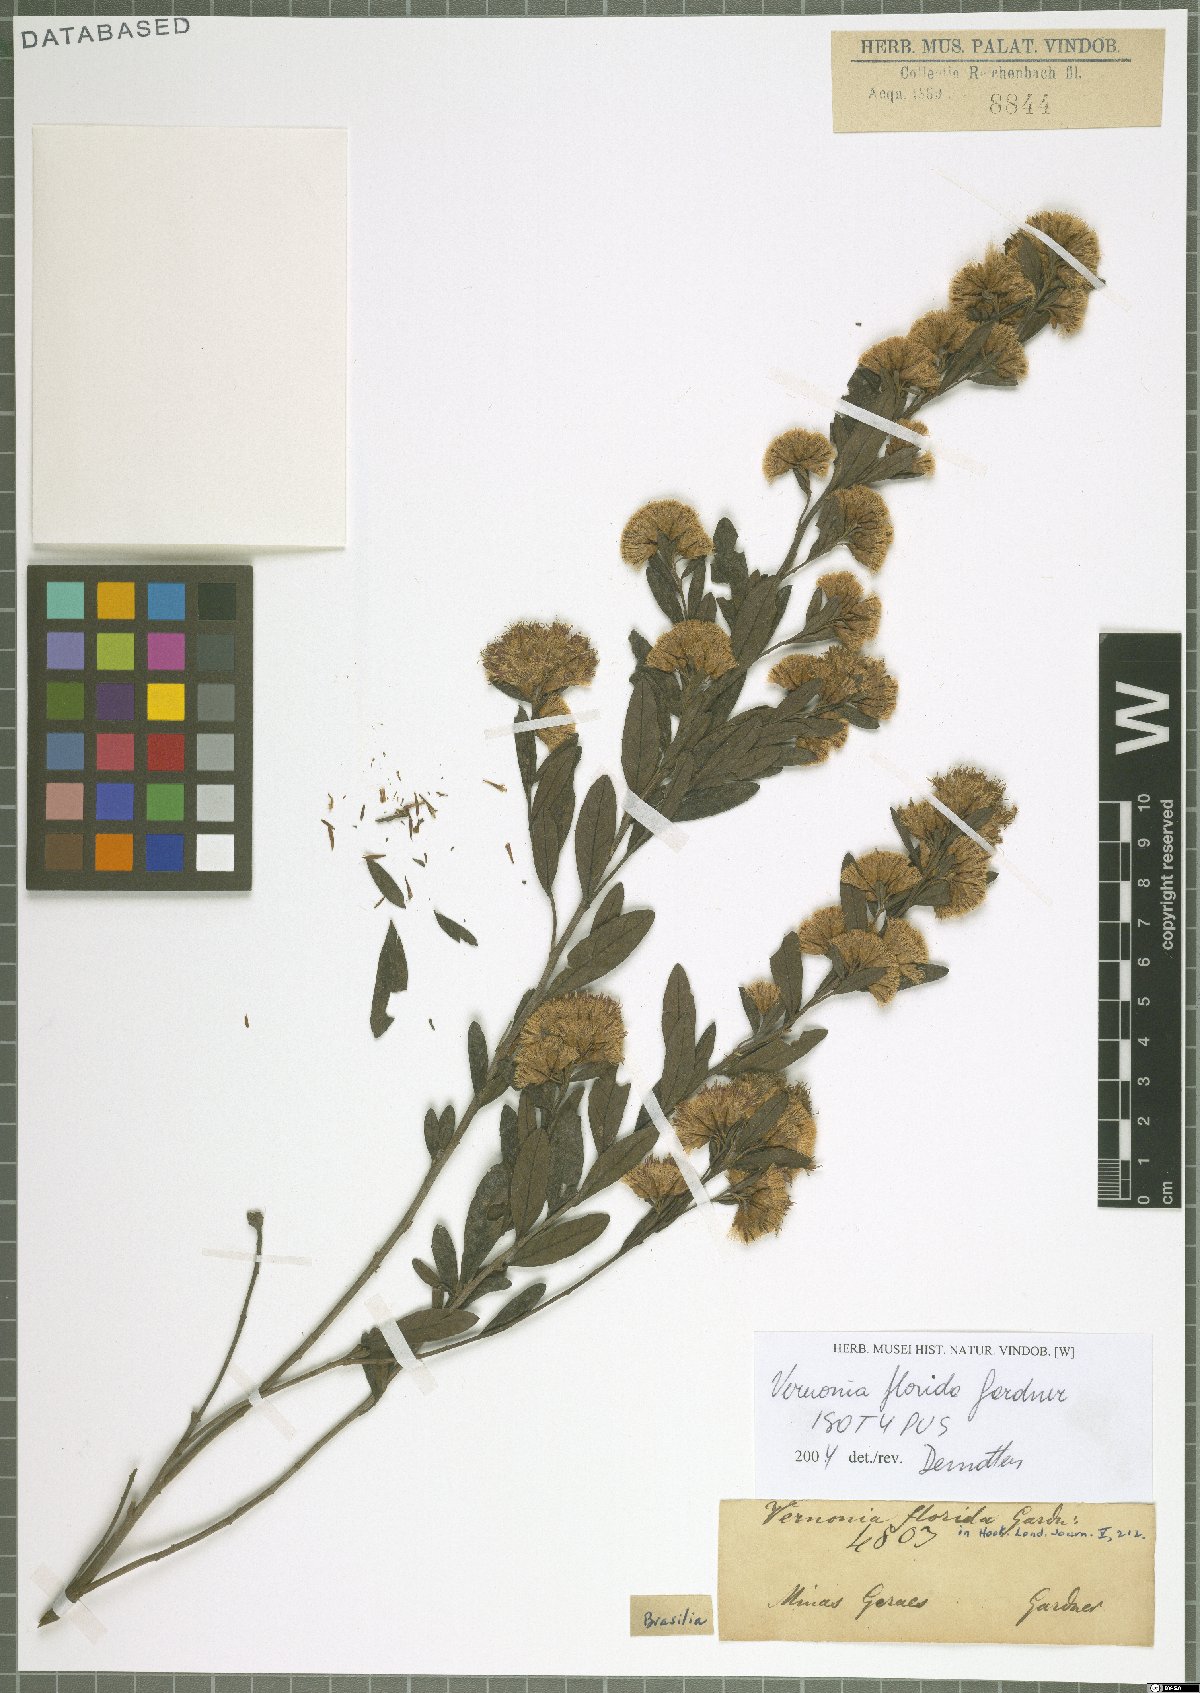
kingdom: Plantae
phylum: Tracheophyta
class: Magnoliopsida
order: Asterales
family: Asteraceae
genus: Vernonanthura
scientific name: Vernonanthura montevidensis
